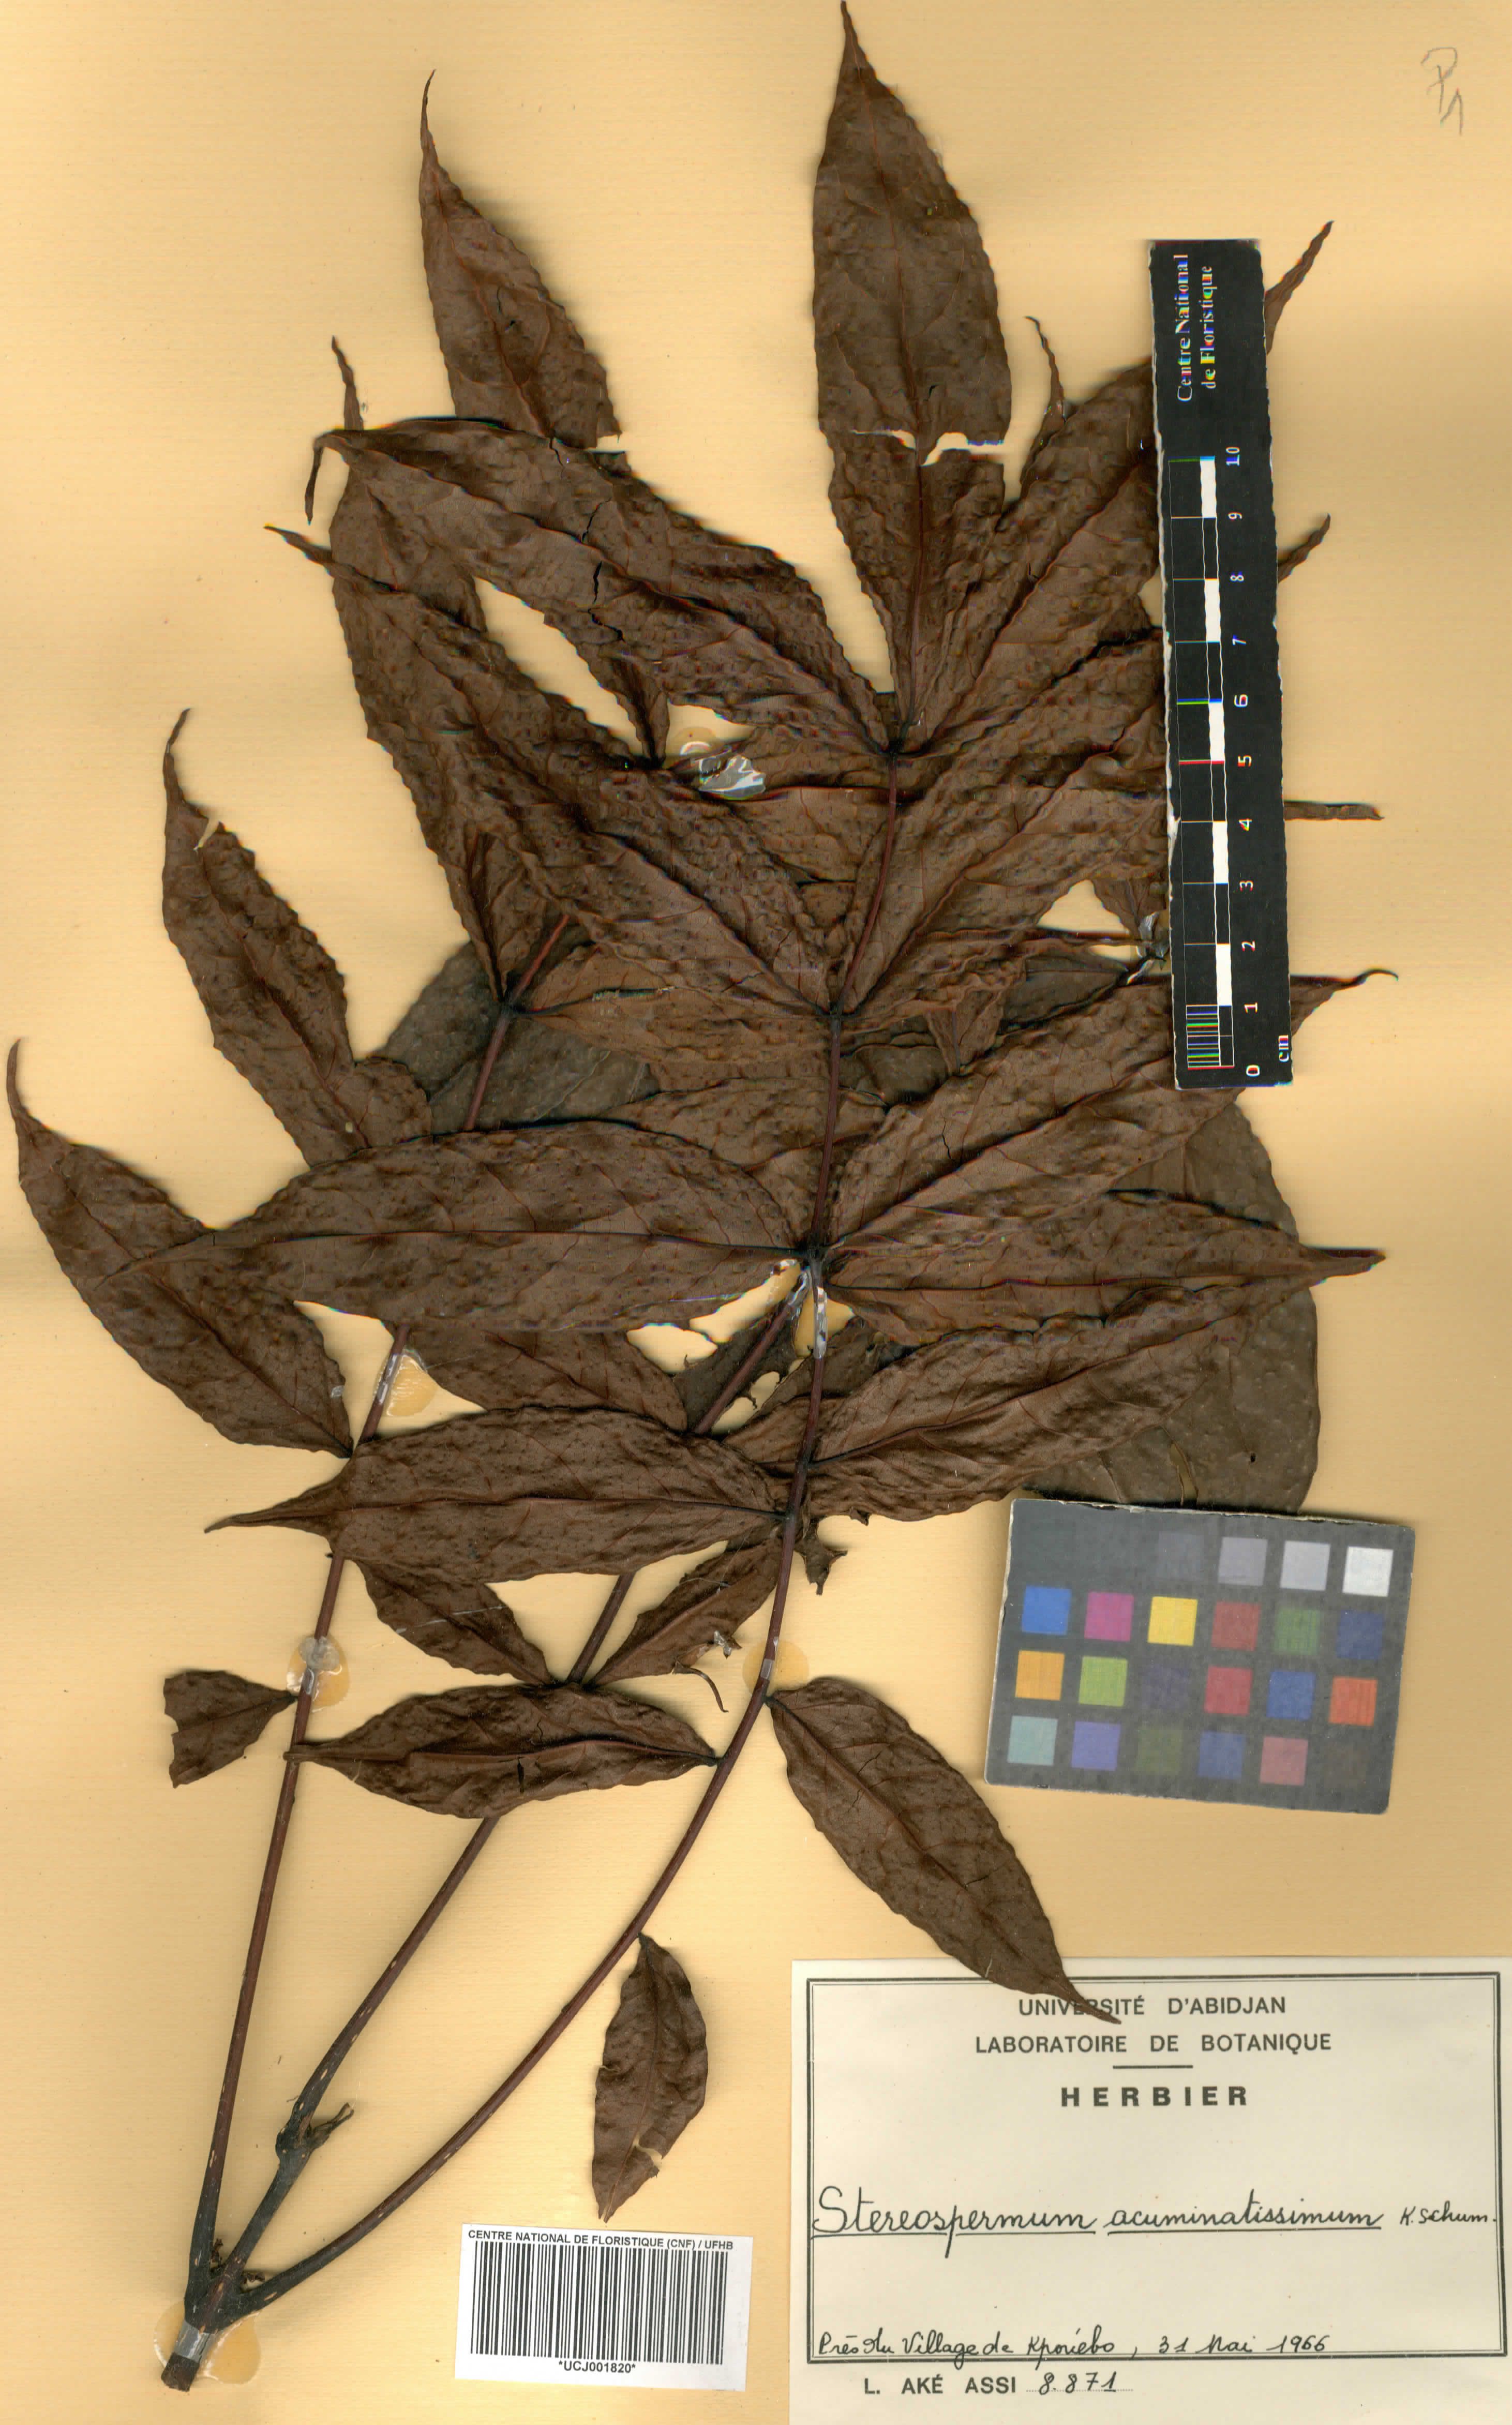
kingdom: Plantae
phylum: Tracheophyta
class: Magnoliopsida
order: Lamiales
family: Bignoniaceae
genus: Stereospermum
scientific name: Stereospermum acuminatissimum
